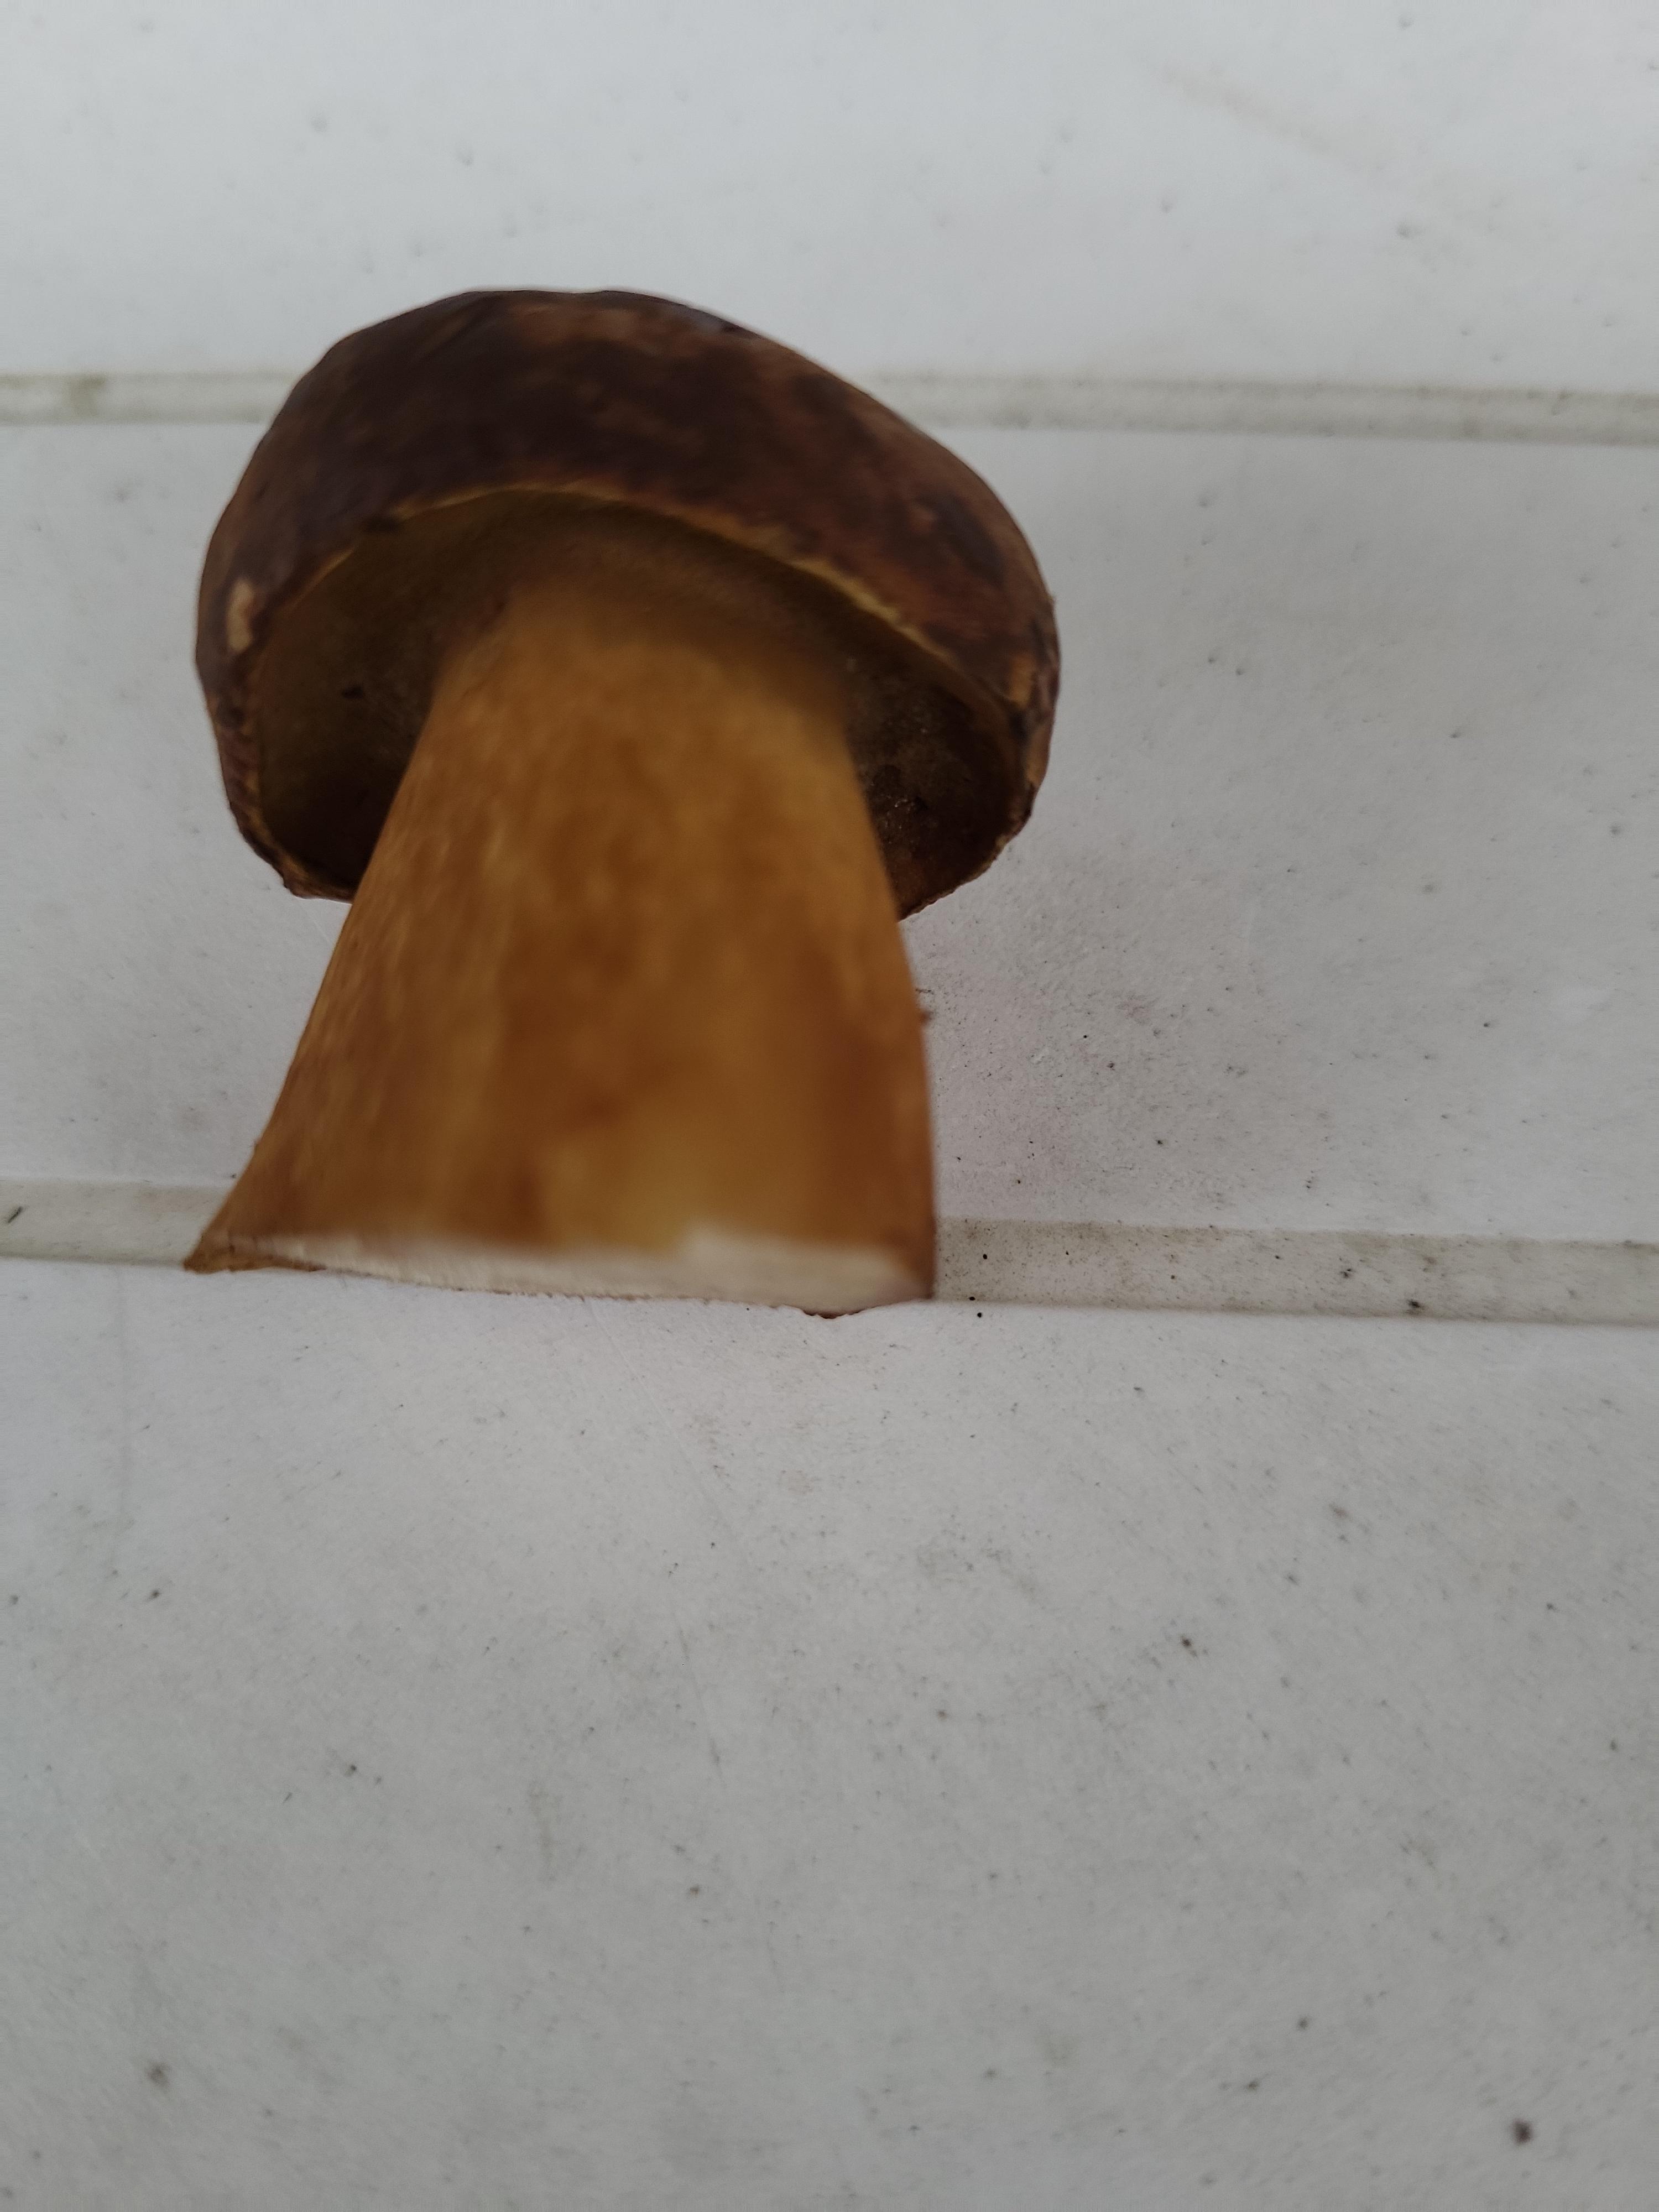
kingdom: Fungi
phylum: Basidiomycota
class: Agaricomycetes
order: Boletales
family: Boletaceae
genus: Imleria
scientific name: Imleria badia
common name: brunstokket rørhat
